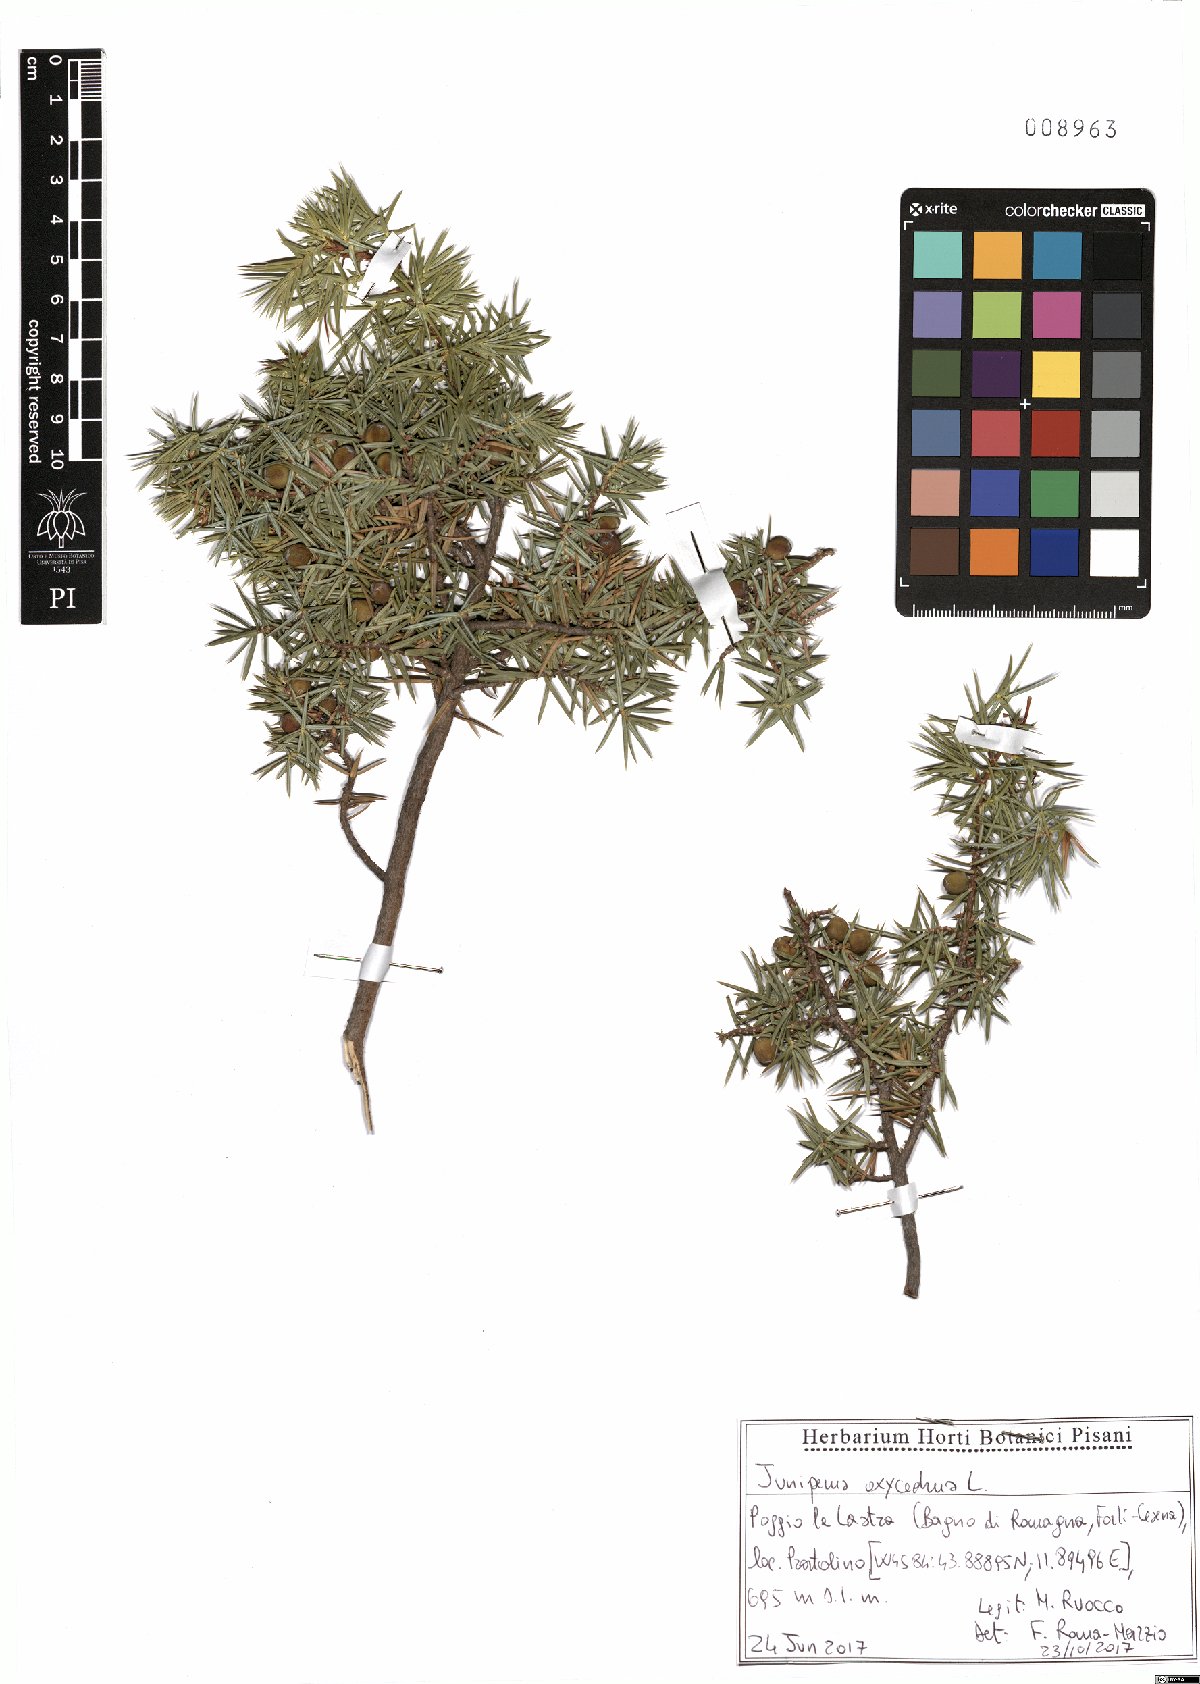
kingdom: Plantae
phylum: Tracheophyta
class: Pinopsida
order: Pinales
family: Cupressaceae
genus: Juniperus
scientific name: Juniperus oxycedrus
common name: Prickly juniper
